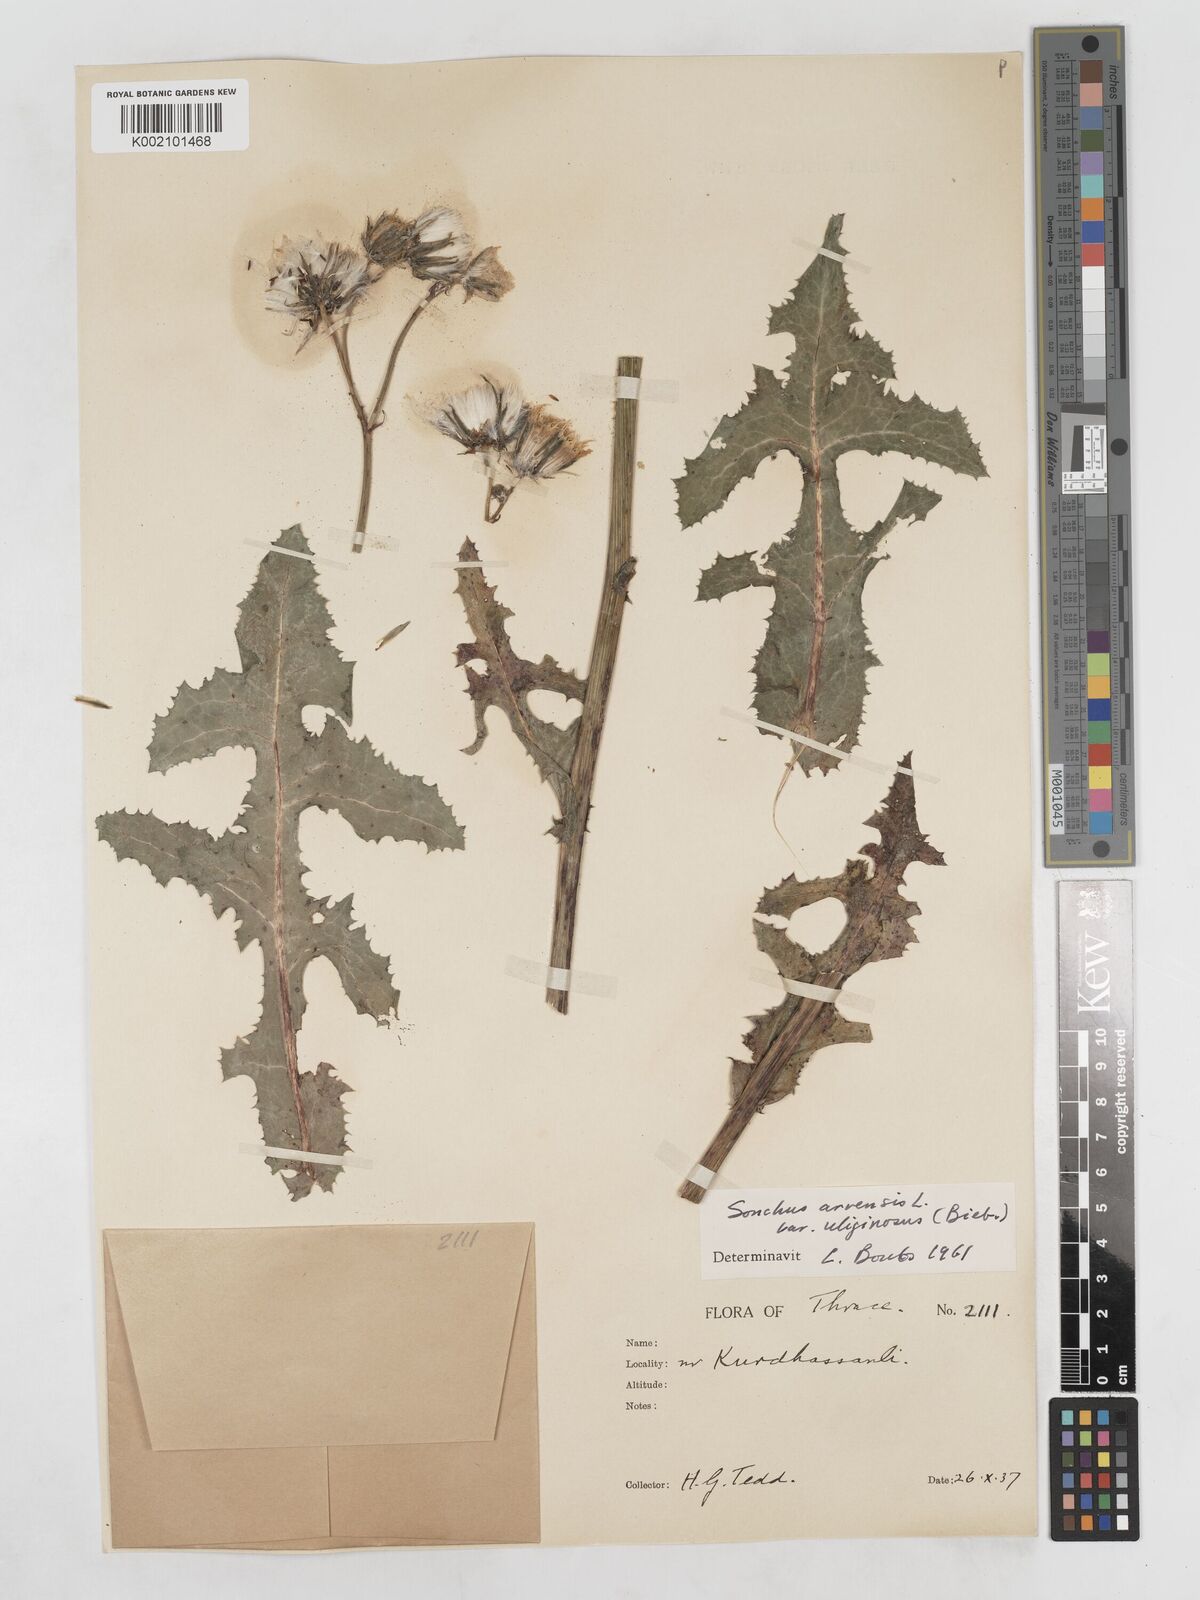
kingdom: Plantae
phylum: Tracheophyta
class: Magnoliopsida
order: Asterales
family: Asteraceae
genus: Sonchus
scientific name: Sonchus arvensis
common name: Perennial sow-thistle
